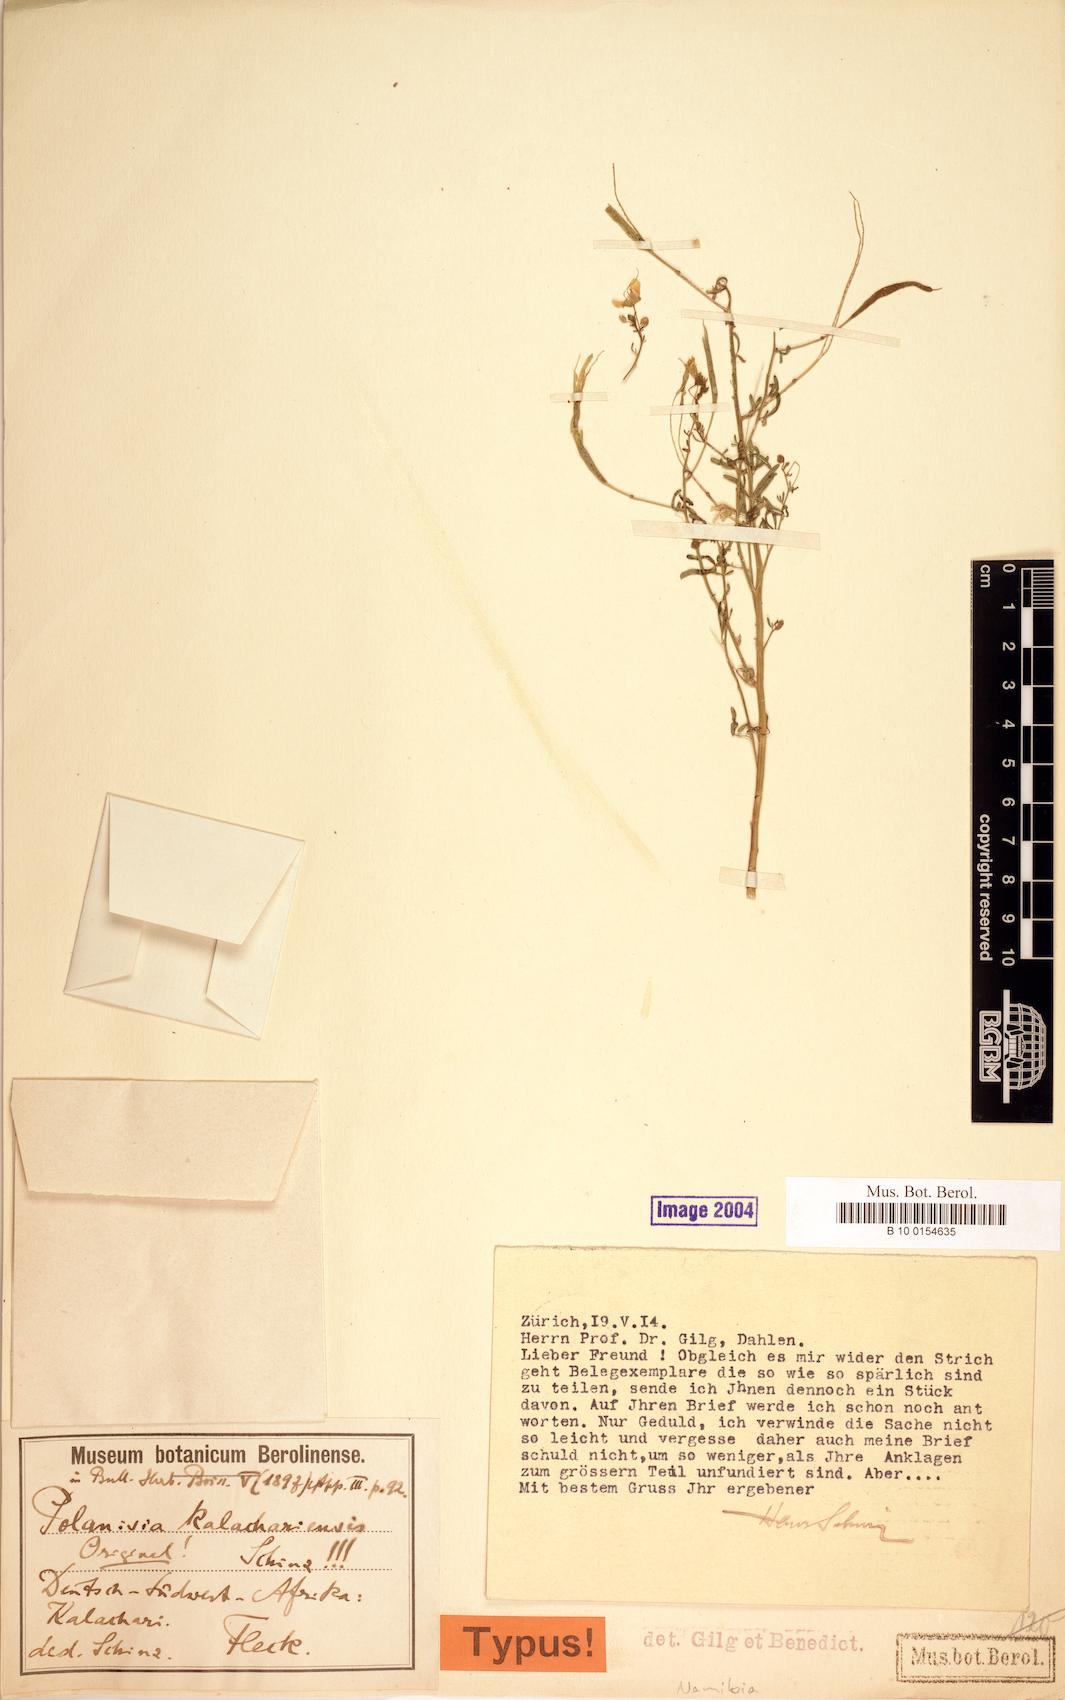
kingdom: Plantae
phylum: Tracheophyta
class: Magnoliopsida
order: Brassicales
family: Cleomaceae
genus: Kersia
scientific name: Kersia kalachariensis
